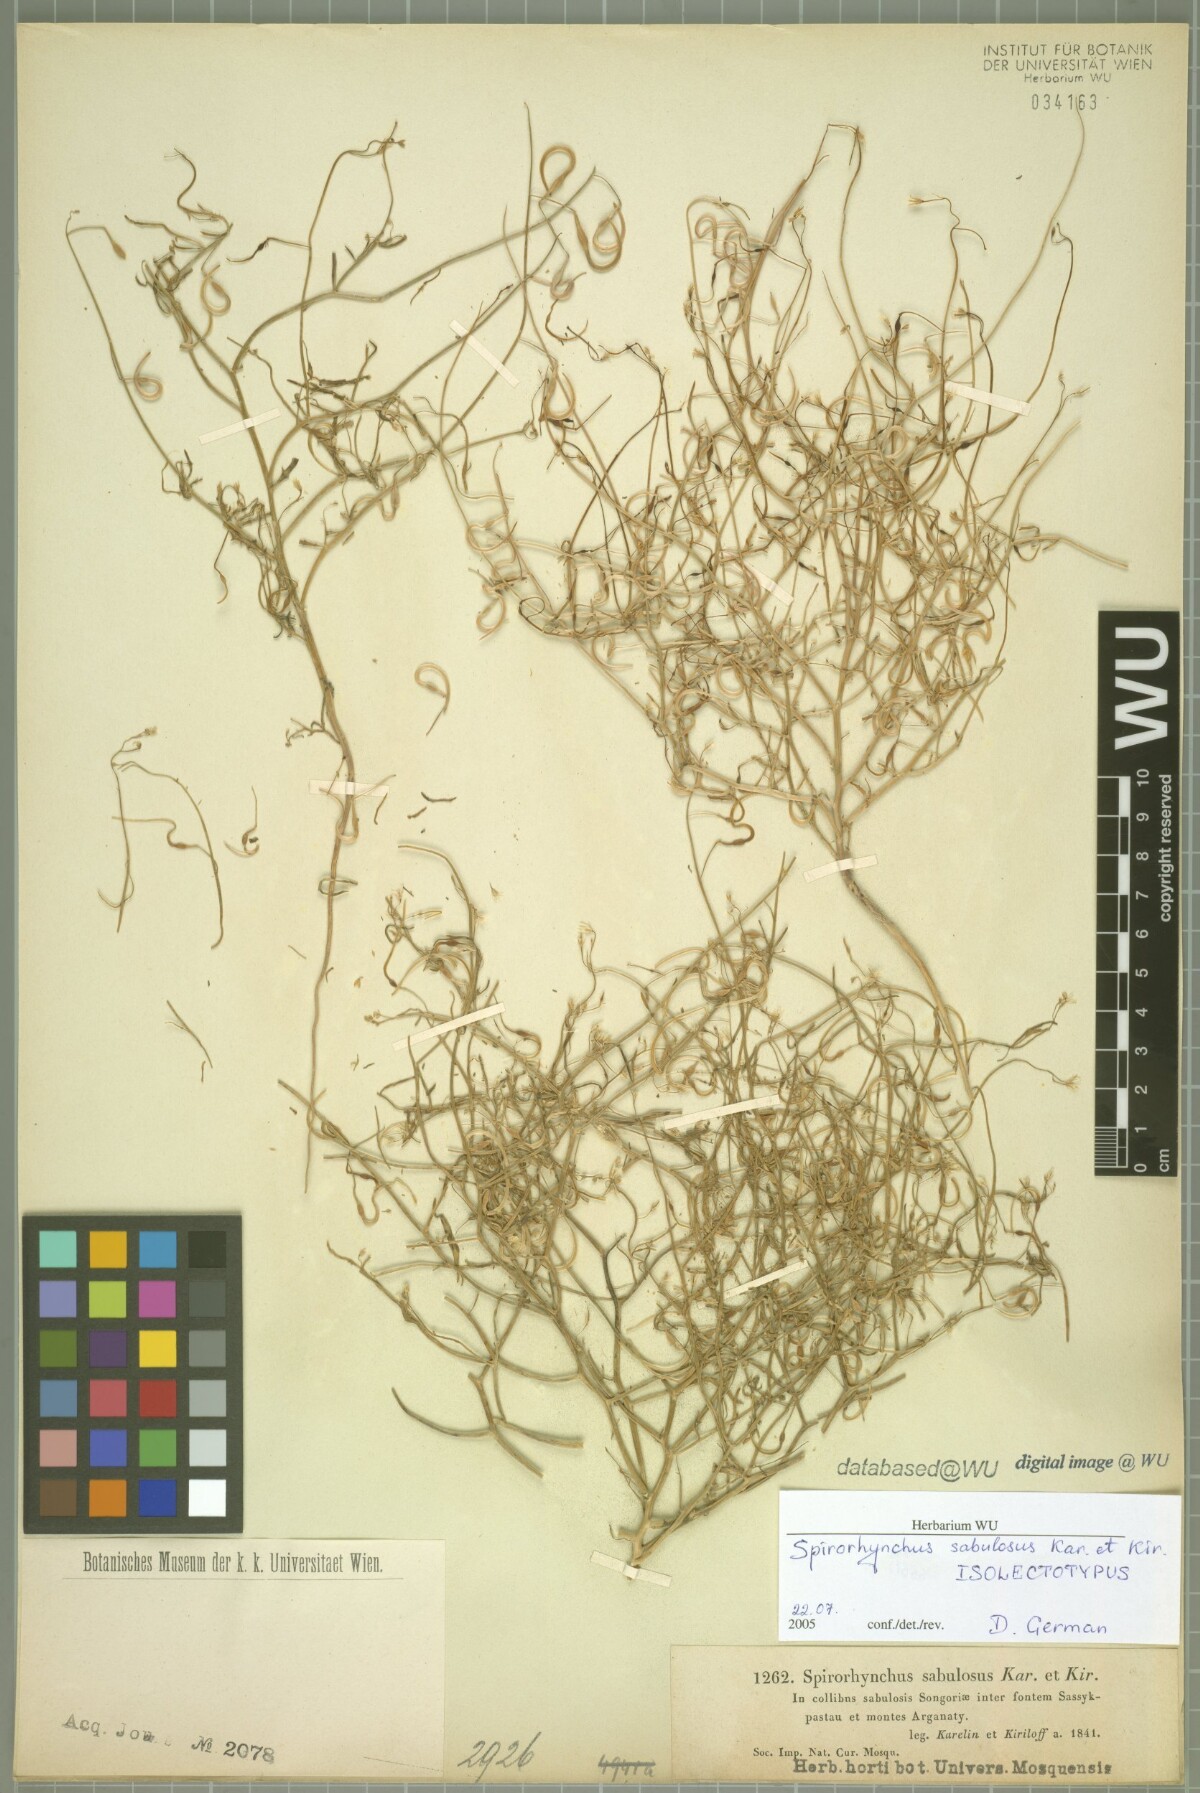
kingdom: Plantae
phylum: Tracheophyta
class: Magnoliopsida
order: Brassicales
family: Brassicaceae
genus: Goldbachia
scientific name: Goldbachia sabulosa
